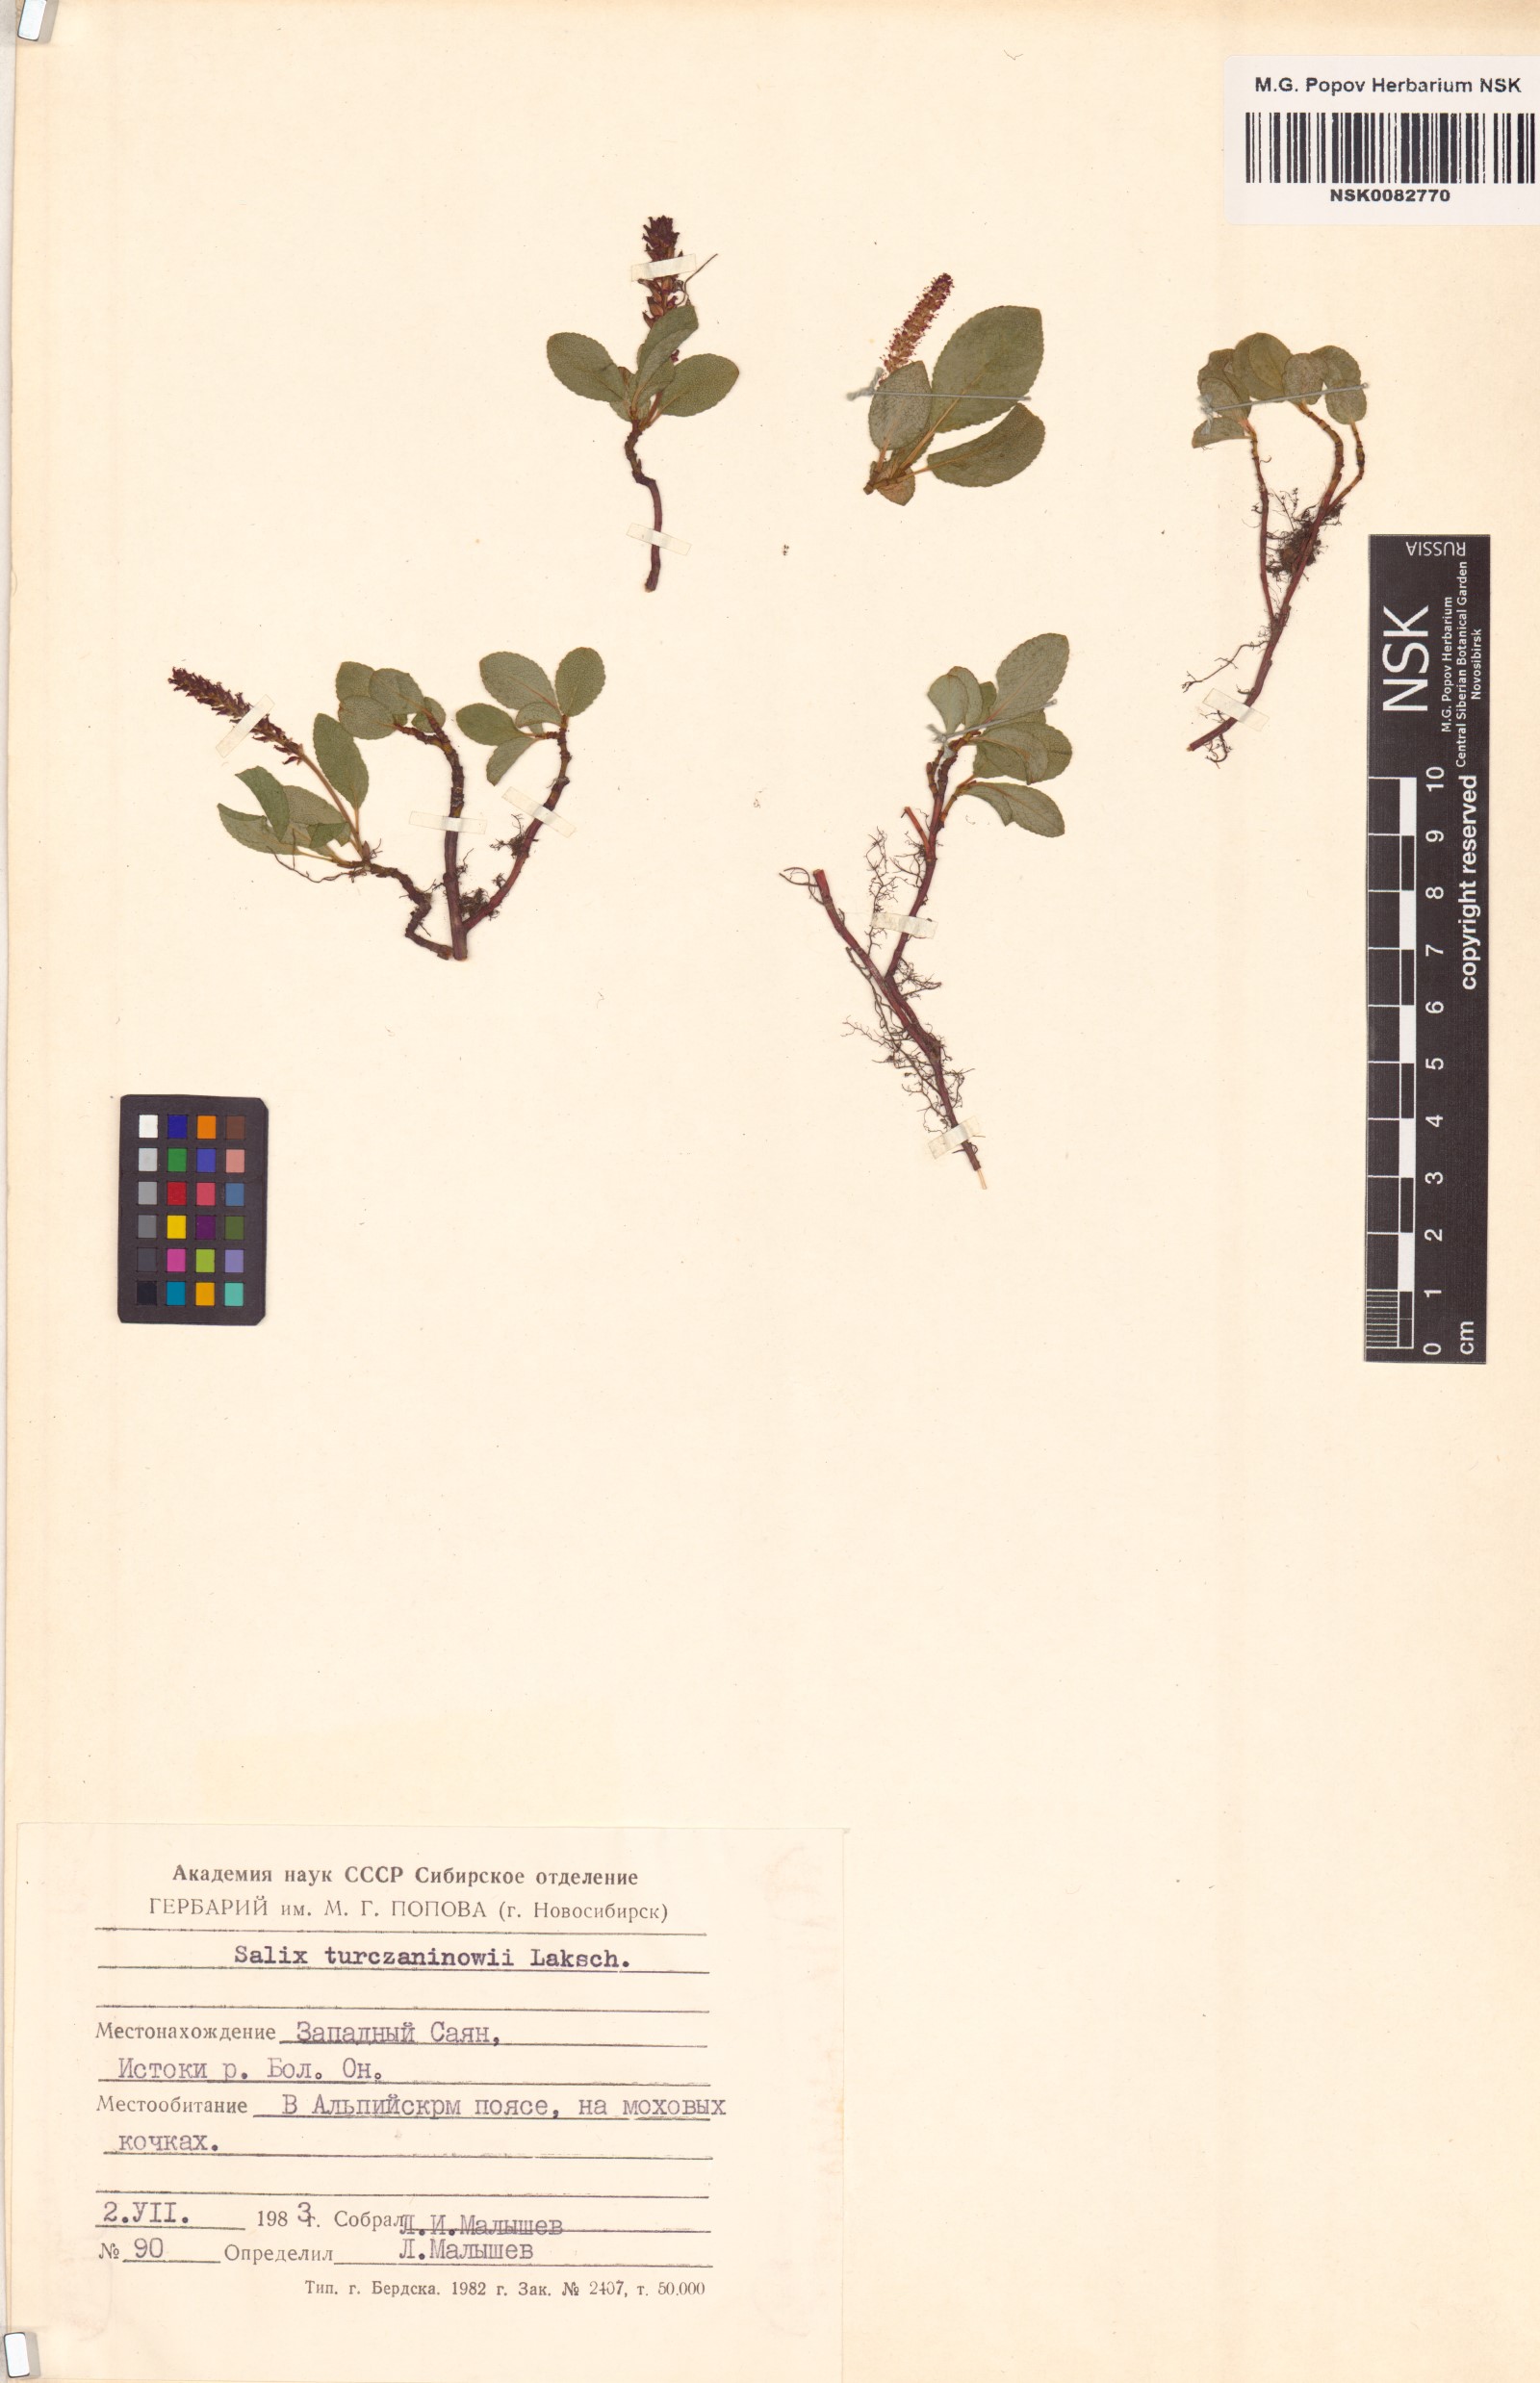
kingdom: Plantae
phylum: Tracheophyta
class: Magnoliopsida
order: Malpighiales
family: Salicaceae
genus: Salix
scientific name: Salix turczaninowii
